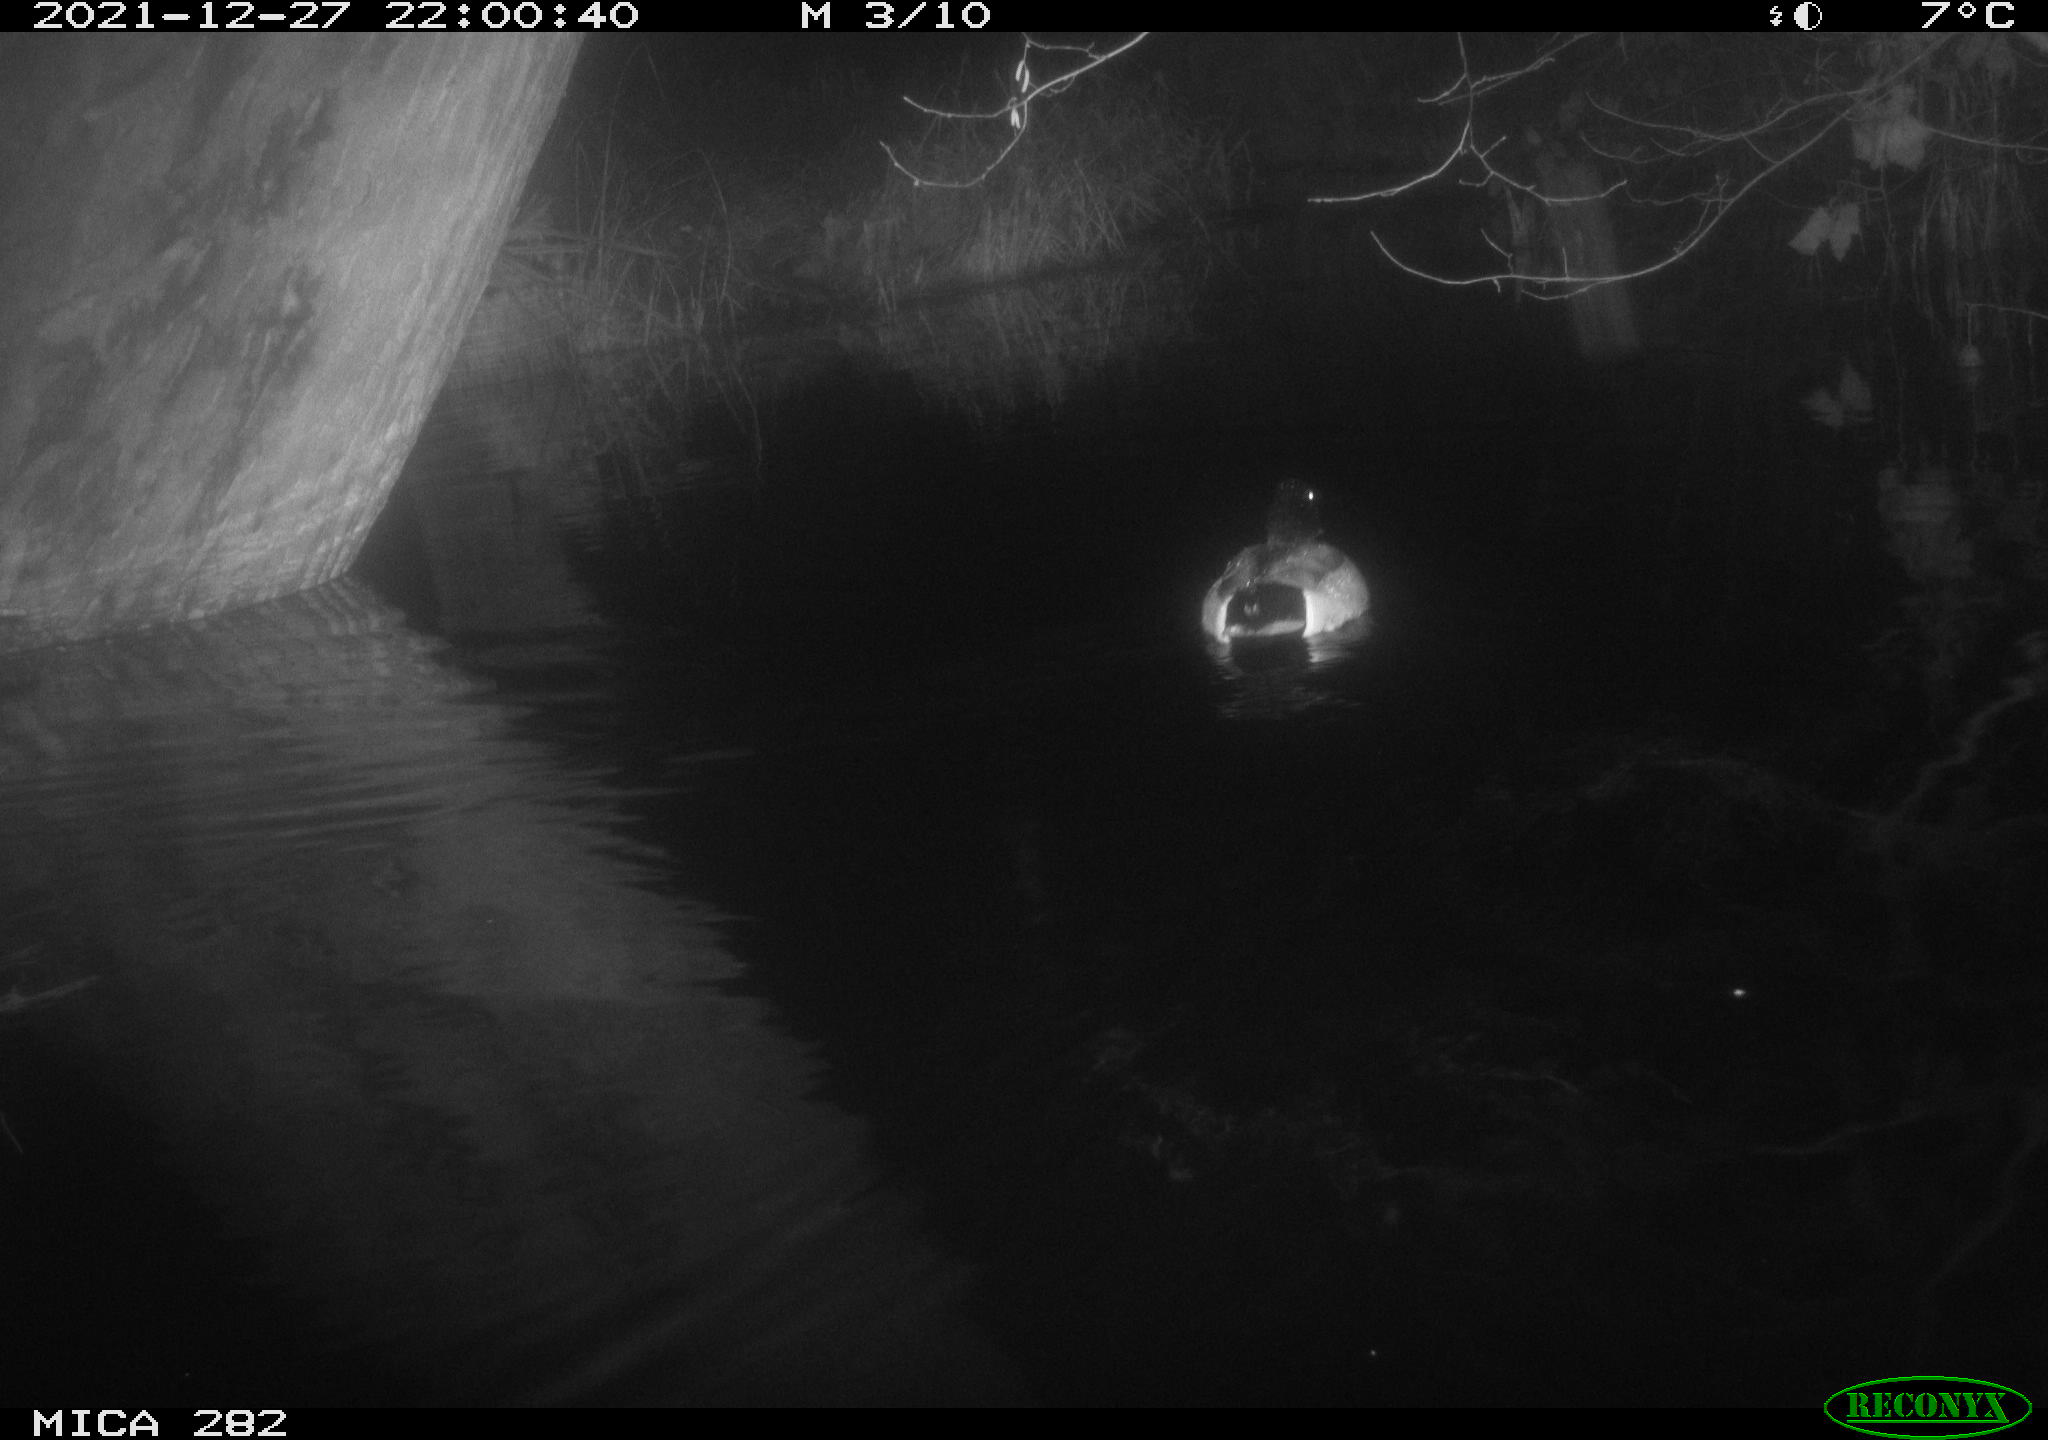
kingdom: Animalia
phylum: Chordata
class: Aves
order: Anseriformes
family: Anatidae
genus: Anas
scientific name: Anas platyrhynchos
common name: Mallard
